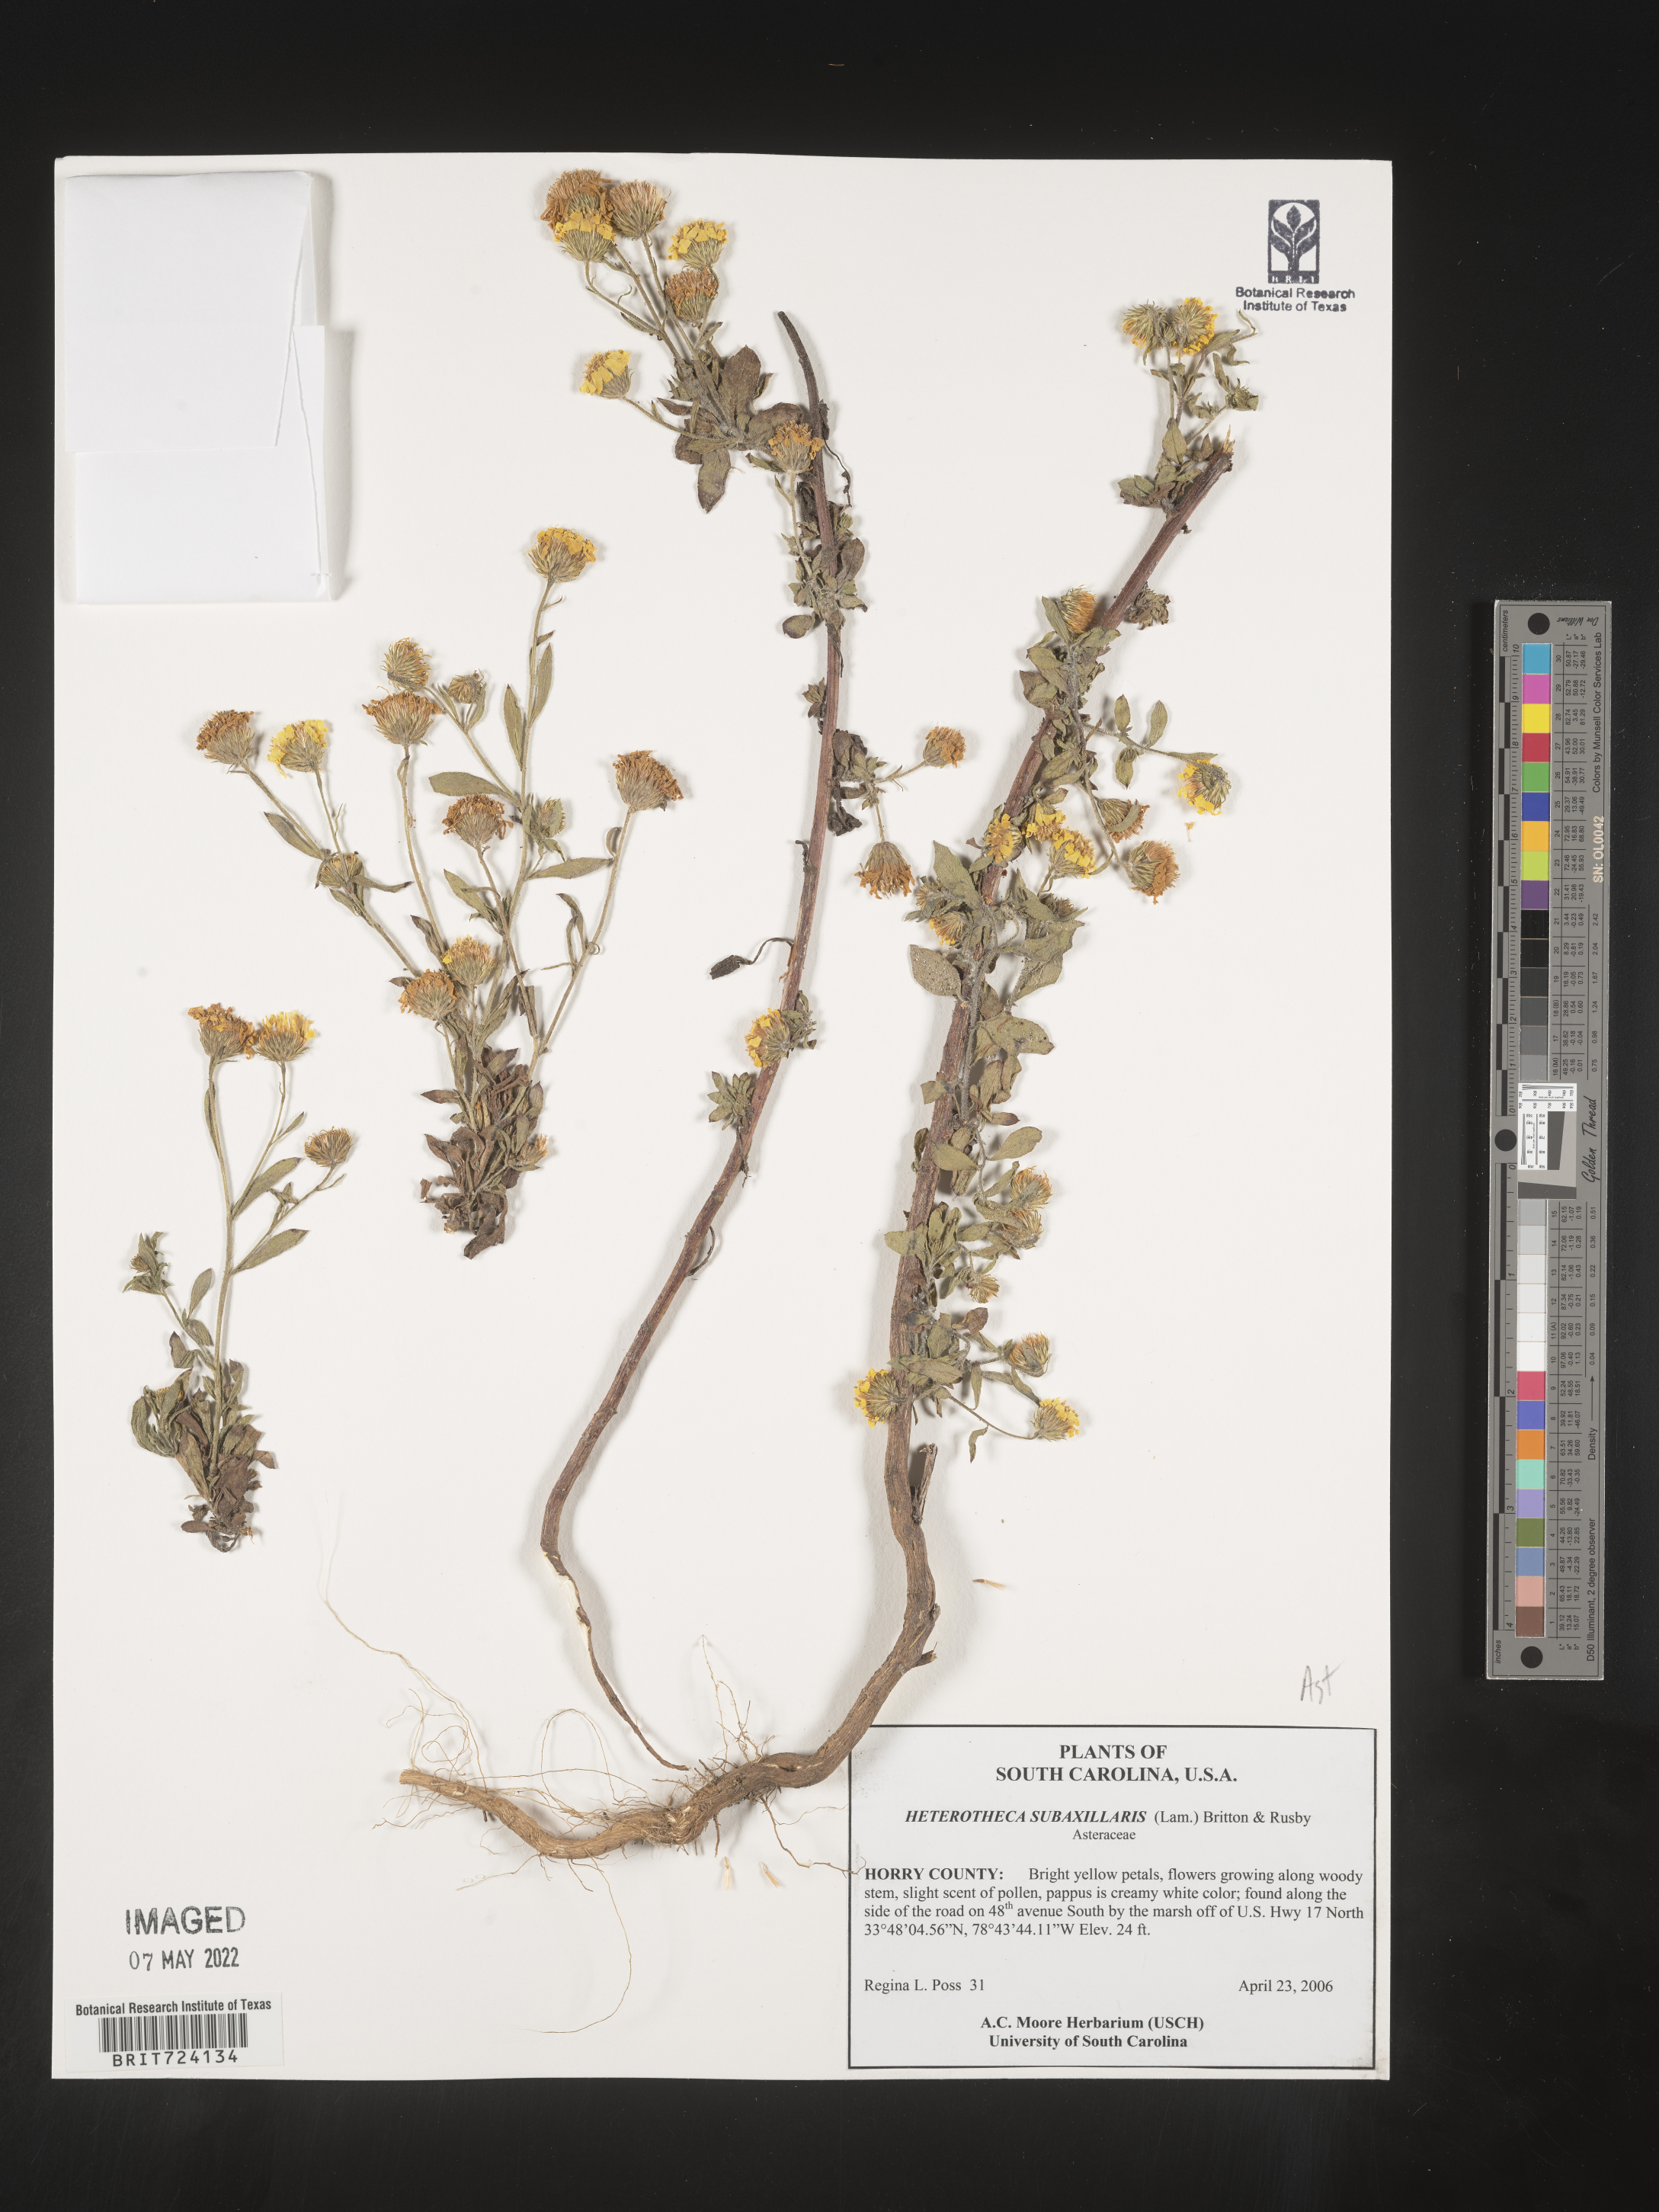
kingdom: Plantae
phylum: Tracheophyta
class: Magnoliopsida
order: Asterales
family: Asteraceae
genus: Heterotheca
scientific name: Heterotheca subaxillaris
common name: Camphorweed
